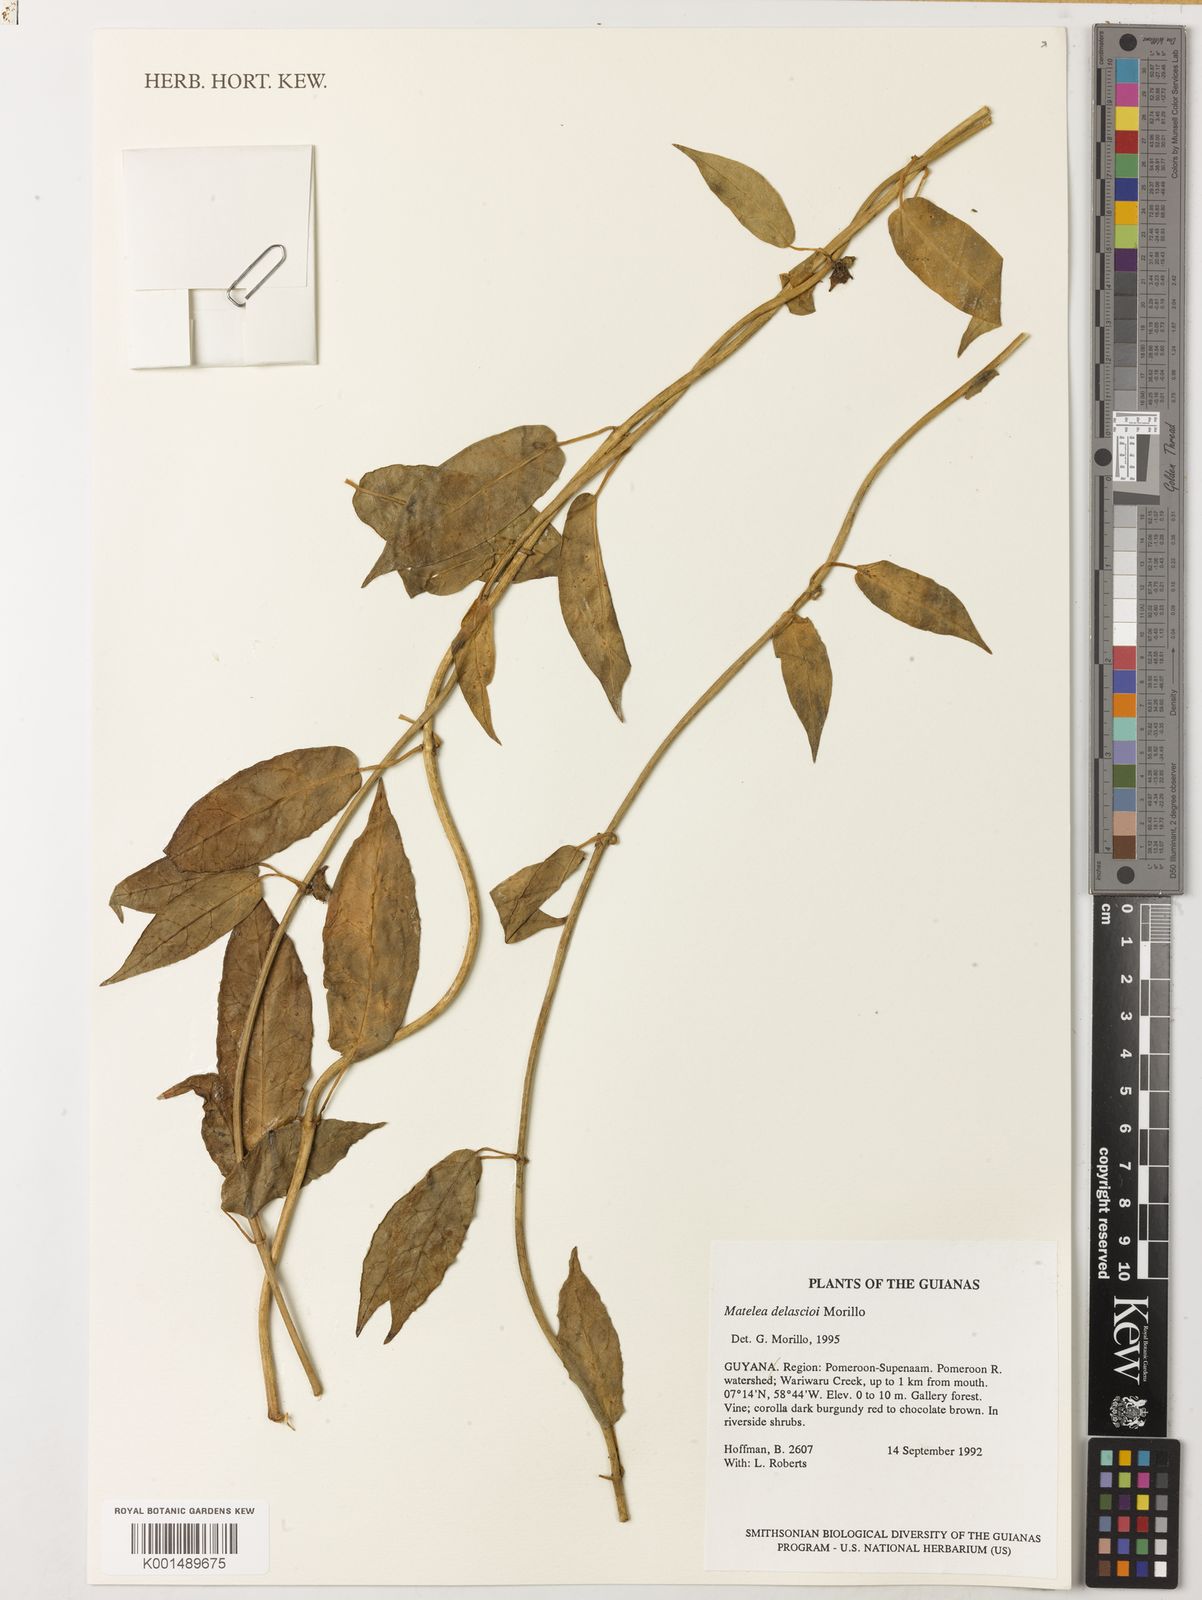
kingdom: Plantae
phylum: Tracheophyta
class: Magnoliopsida
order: Gentianales
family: Apocynaceae
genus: Matelea
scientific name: Matelea delascioi
